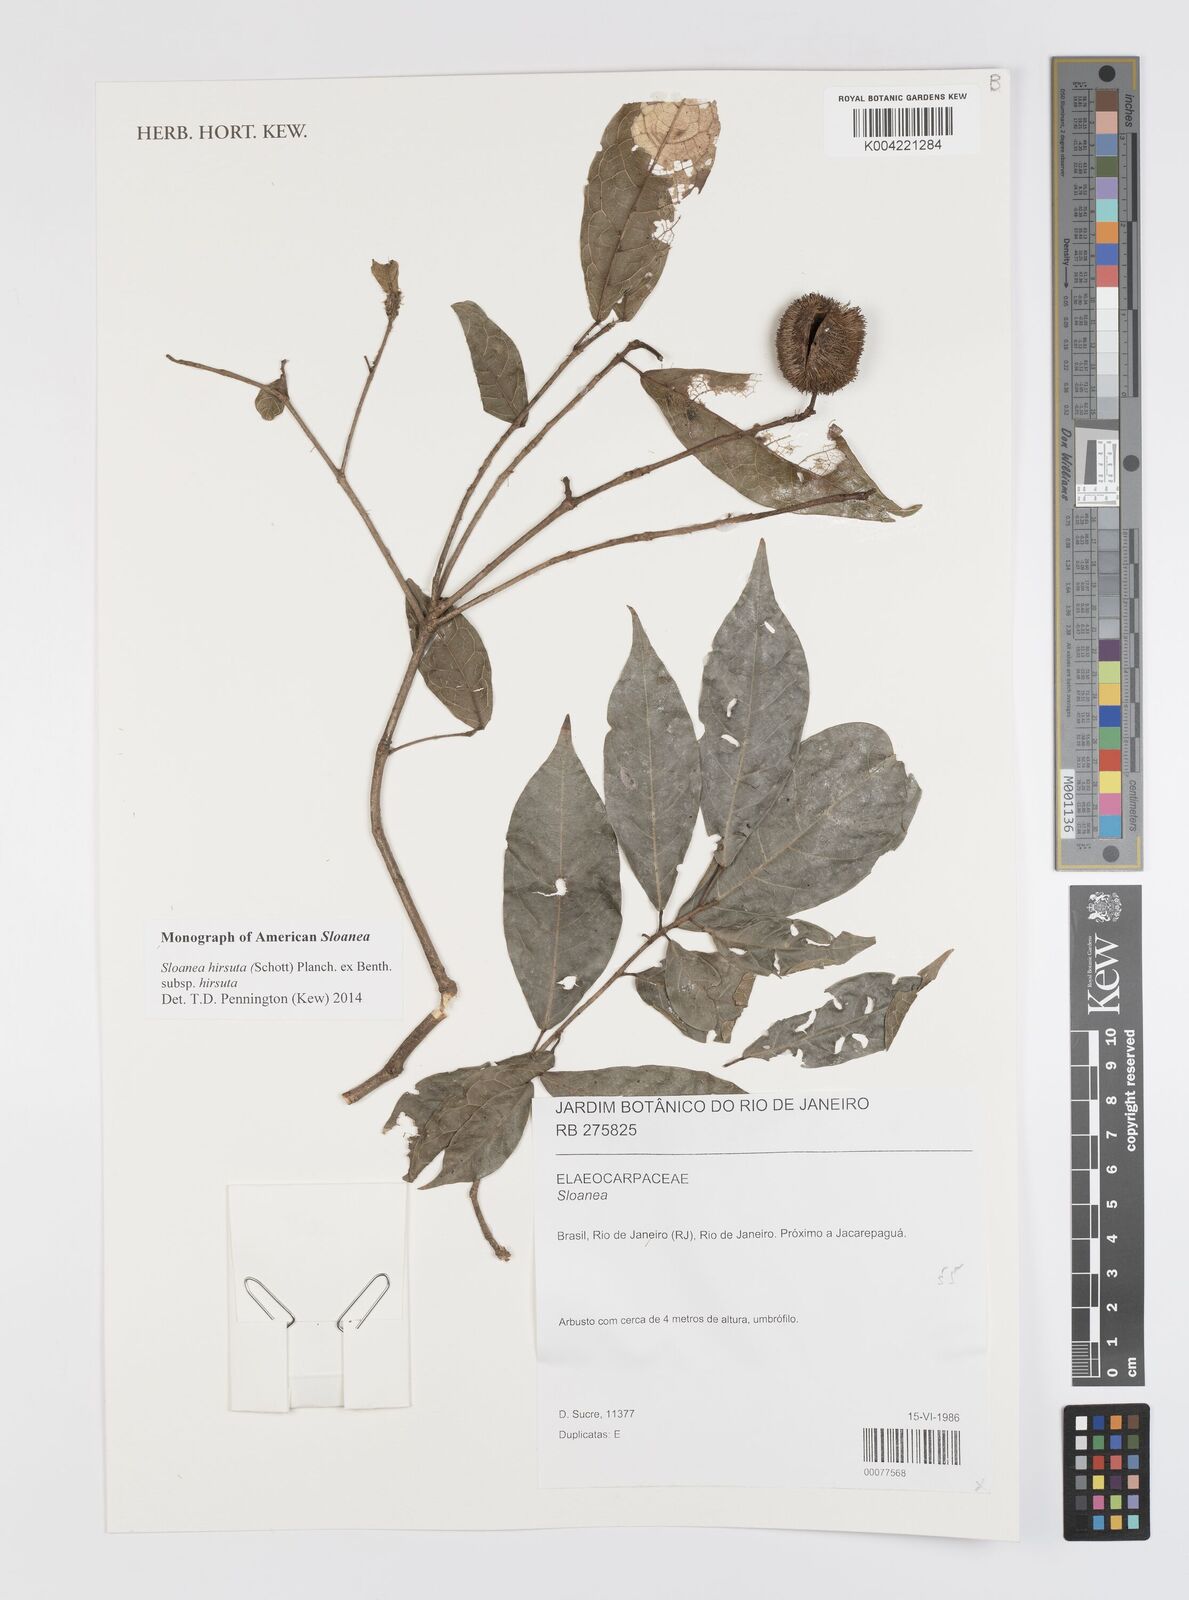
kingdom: Plantae
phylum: Tracheophyta
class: Magnoliopsida
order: Oxalidales
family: Elaeocarpaceae
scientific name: Elaeocarpaceae
